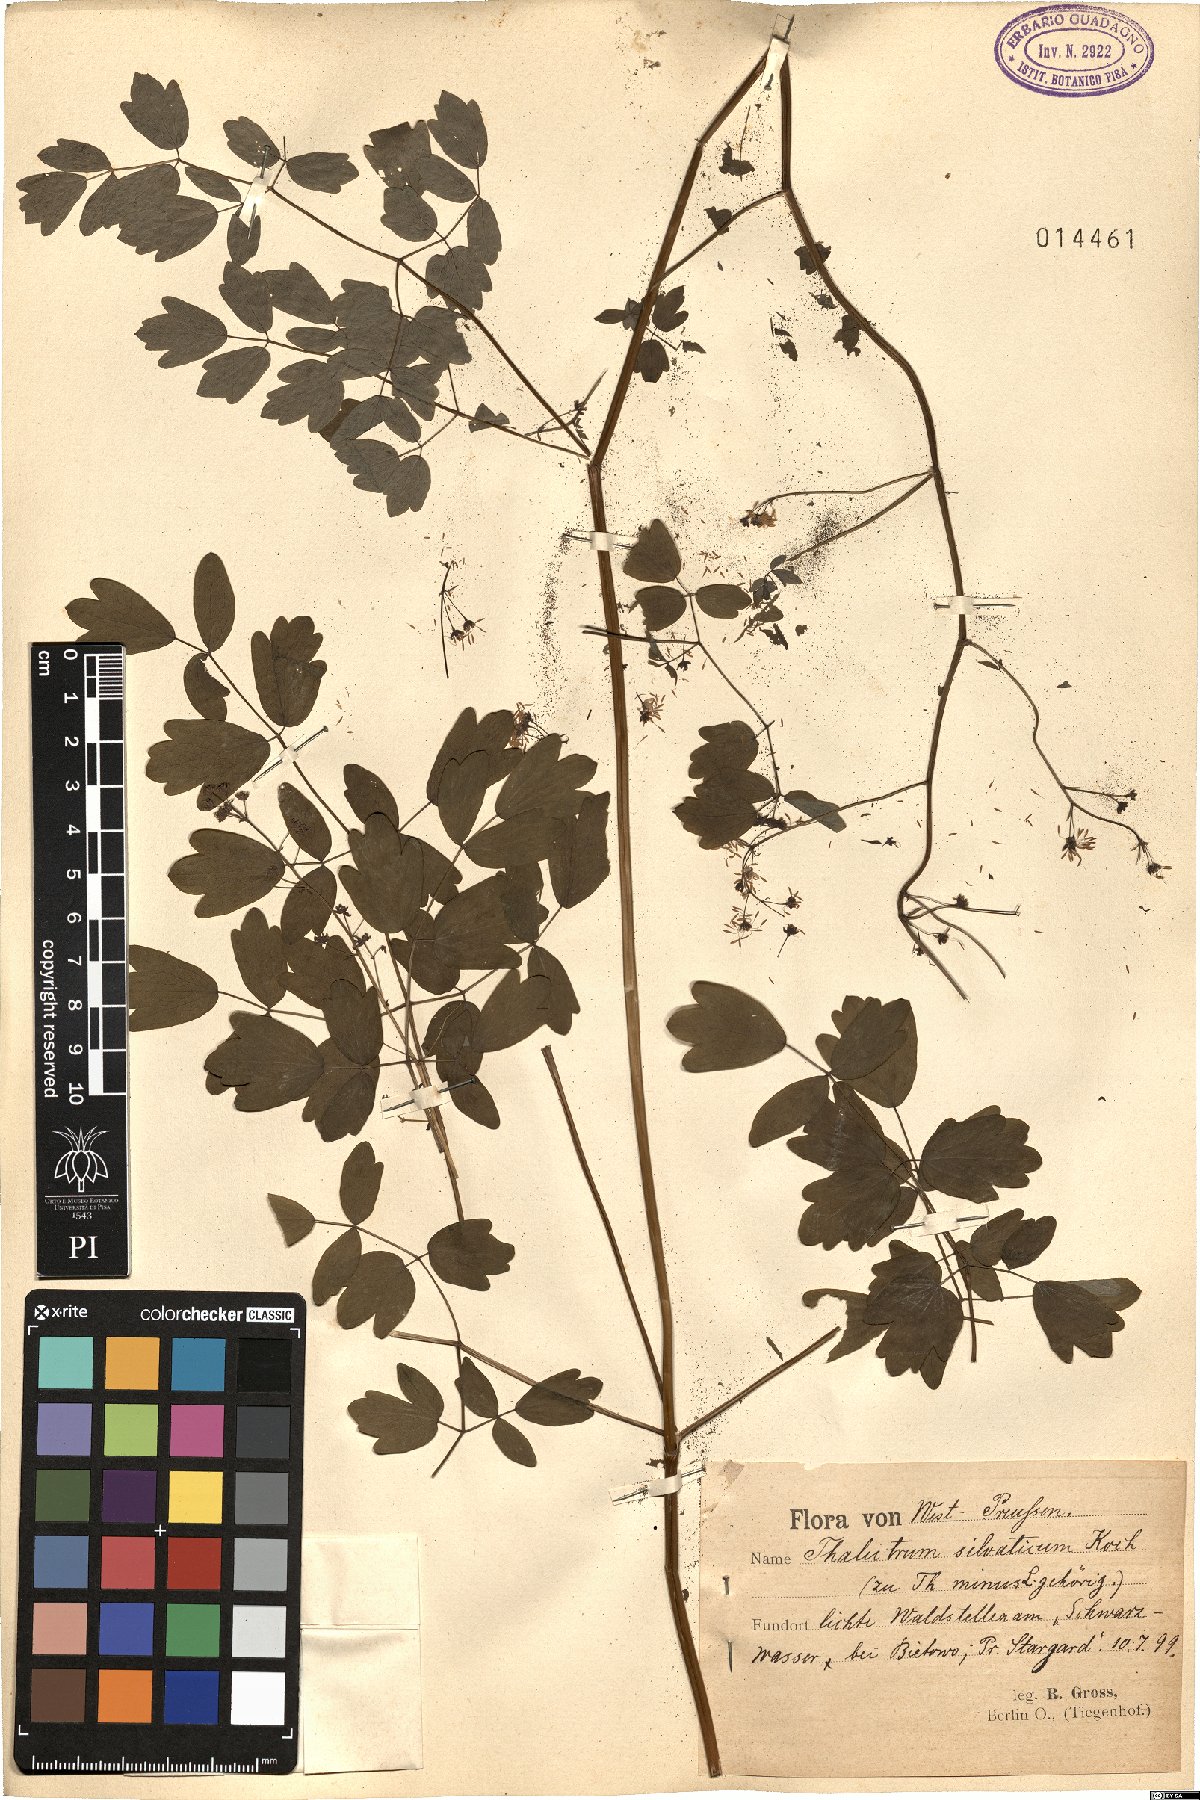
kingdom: Plantae
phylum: Tracheophyta
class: Magnoliopsida
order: Ranunculales
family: Ranunculaceae
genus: Thalictrum
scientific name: Thalictrum minus
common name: Lesser meadow-rue
